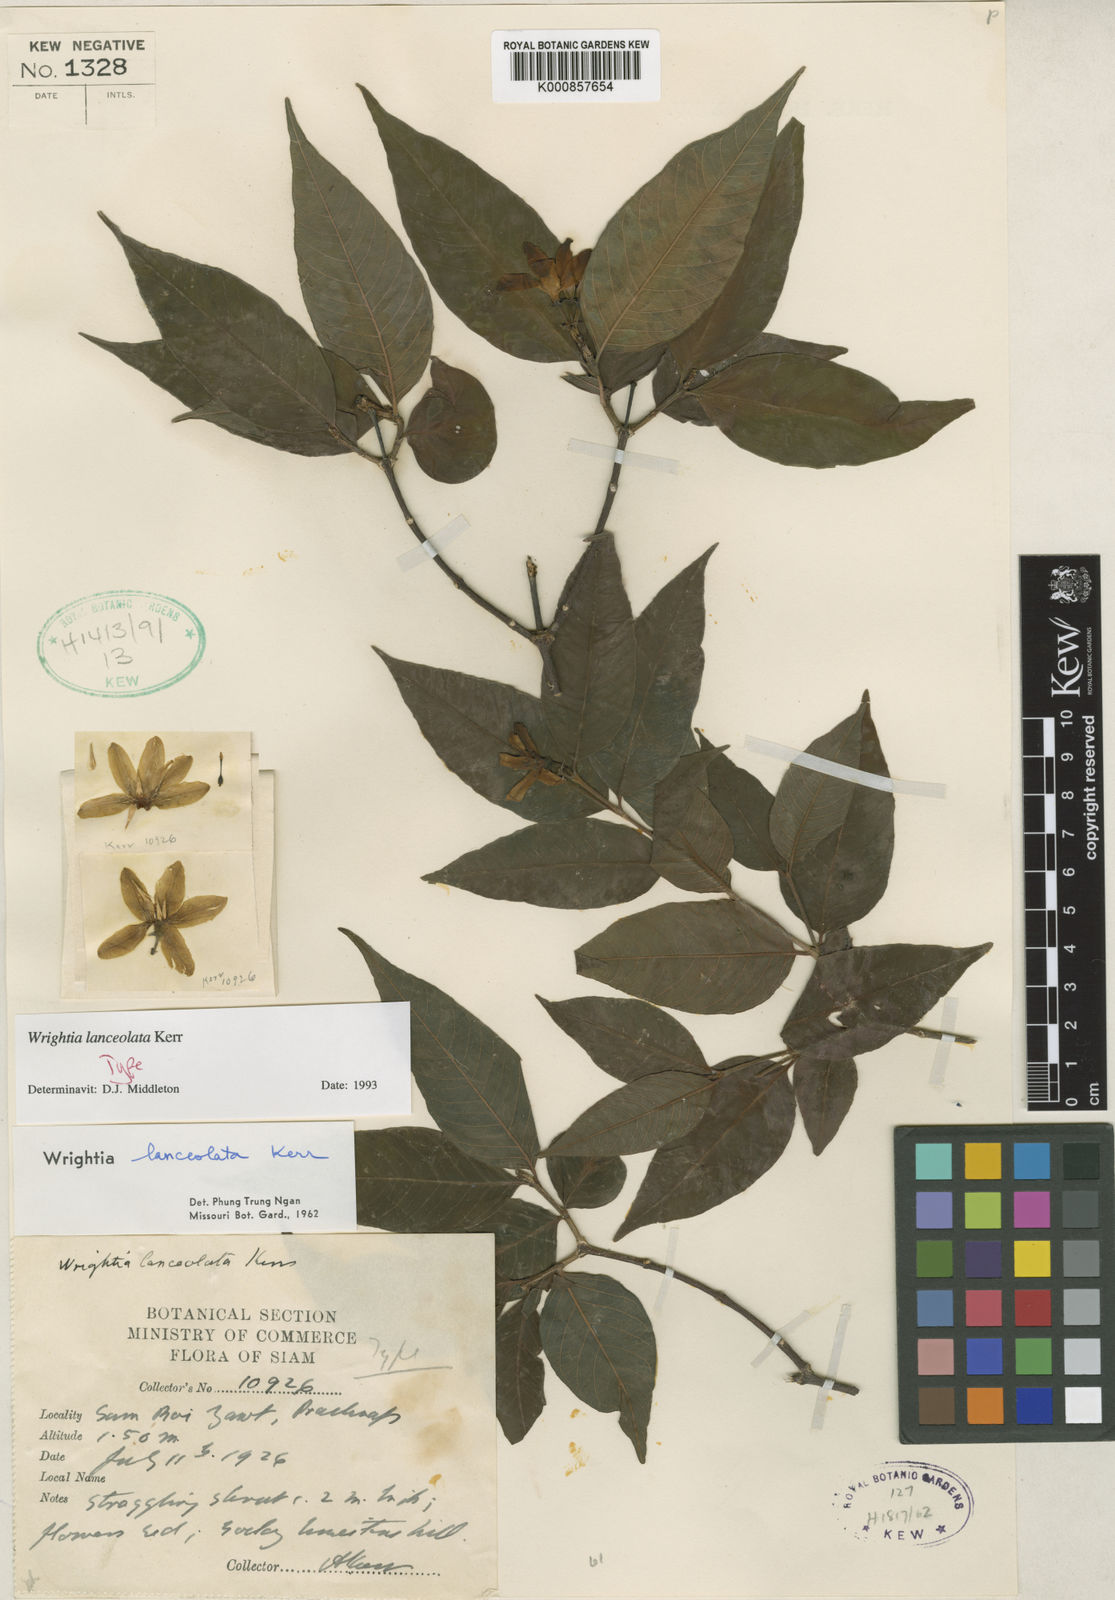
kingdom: Plantae
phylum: Tracheophyta
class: Magnoliopsida
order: Gentianales
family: Apocynaceae
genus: Wrightia
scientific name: Wrightia lanceolata
